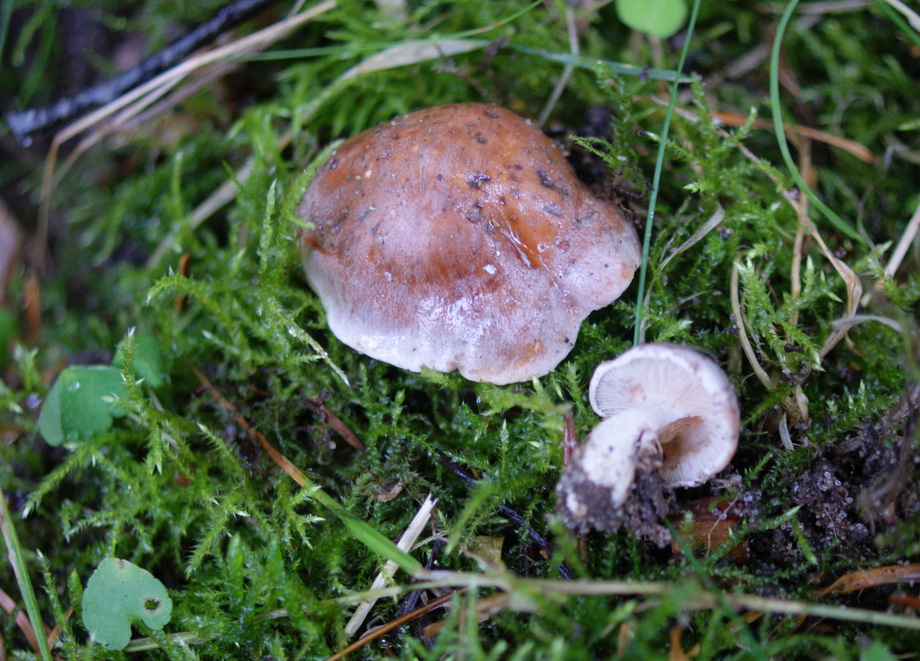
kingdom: Fungi
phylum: Basidiomycota
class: Agaricomycetes
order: Agaricales
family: Hymenogastraceae
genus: Hebeloma
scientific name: Hebeloma theobrominum
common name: rødbrun tåreblad
